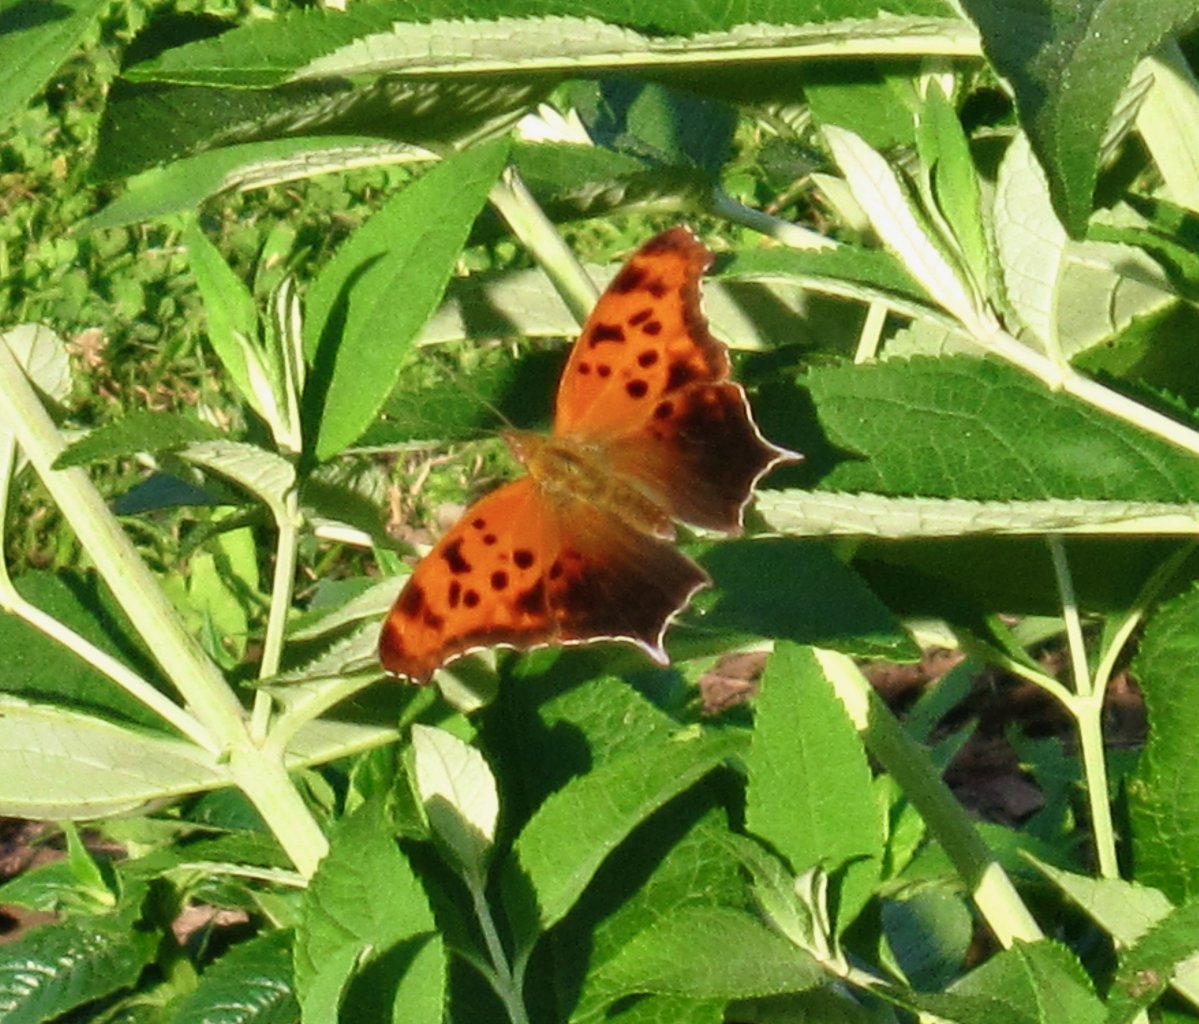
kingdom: Animalia
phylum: Arthropoda
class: Insecta
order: Lepidoptera
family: Nymphalidae
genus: Polygonia
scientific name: Polygonia interrogationis
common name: Question Mark
